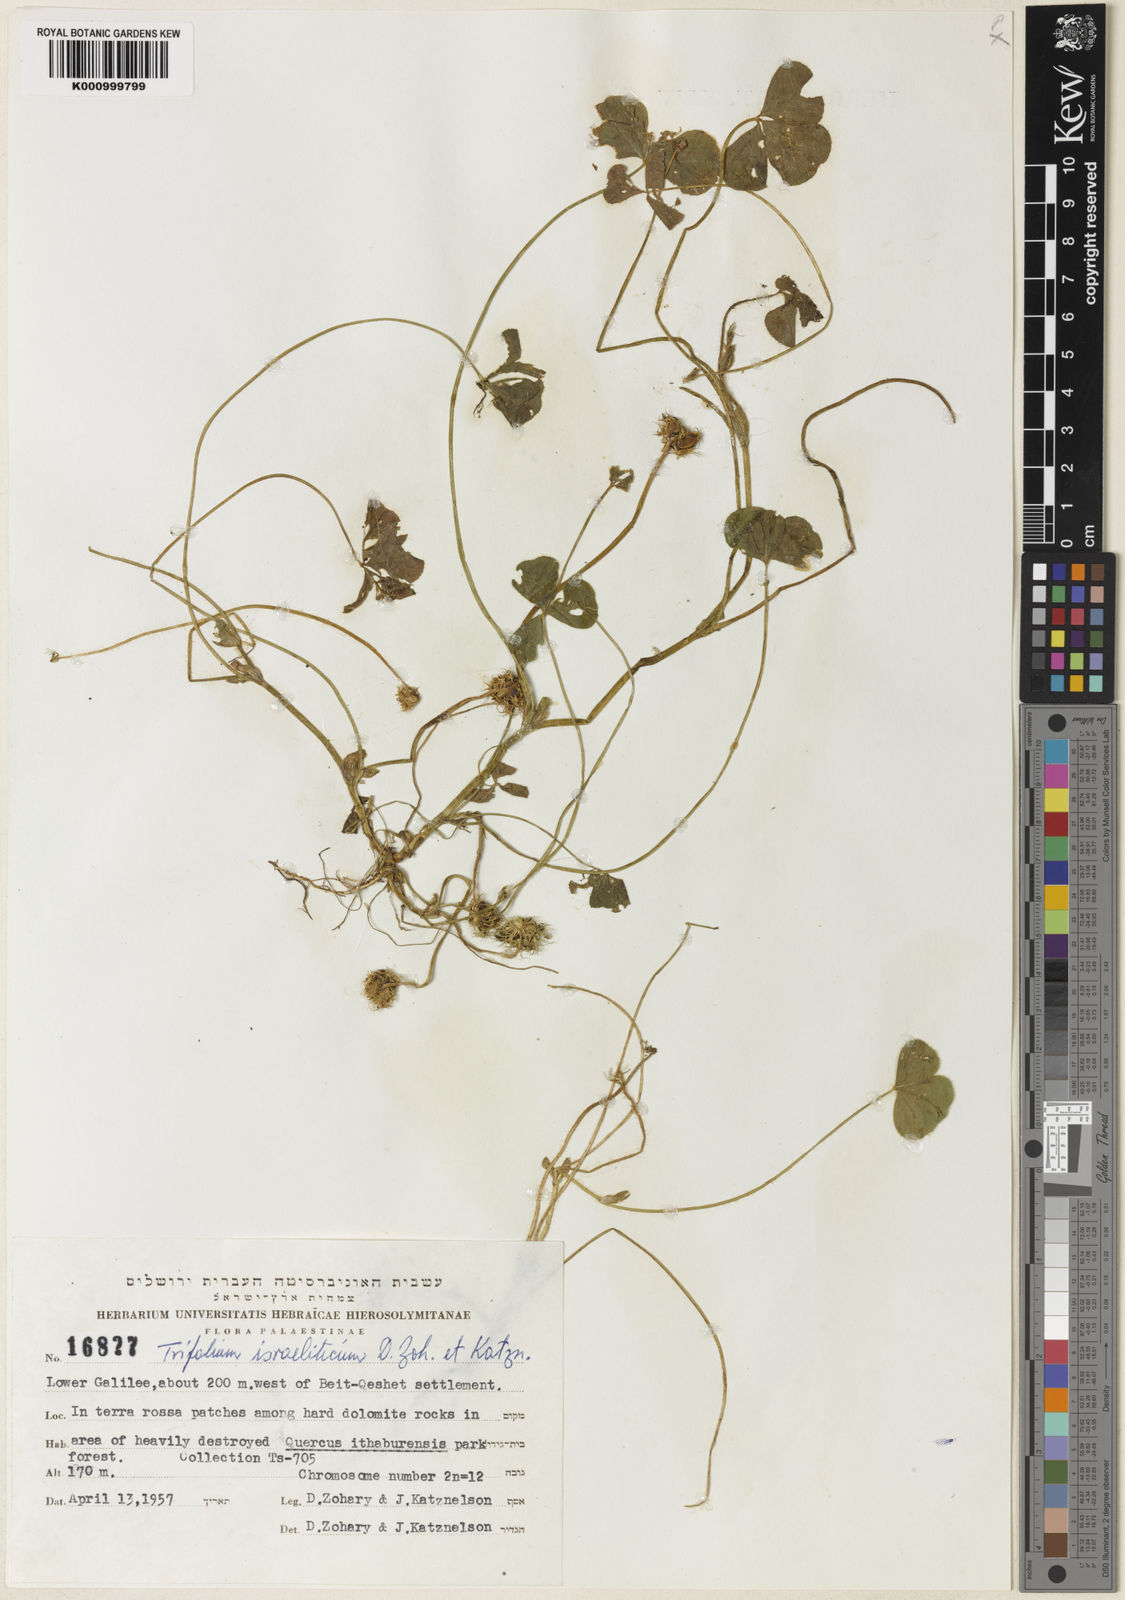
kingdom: Plantae
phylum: Tracheophyta
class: Magnoliopsida
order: Fabales
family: Fabaceae
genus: Trifolium
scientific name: Trifolium israeliticum
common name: Israel clover
